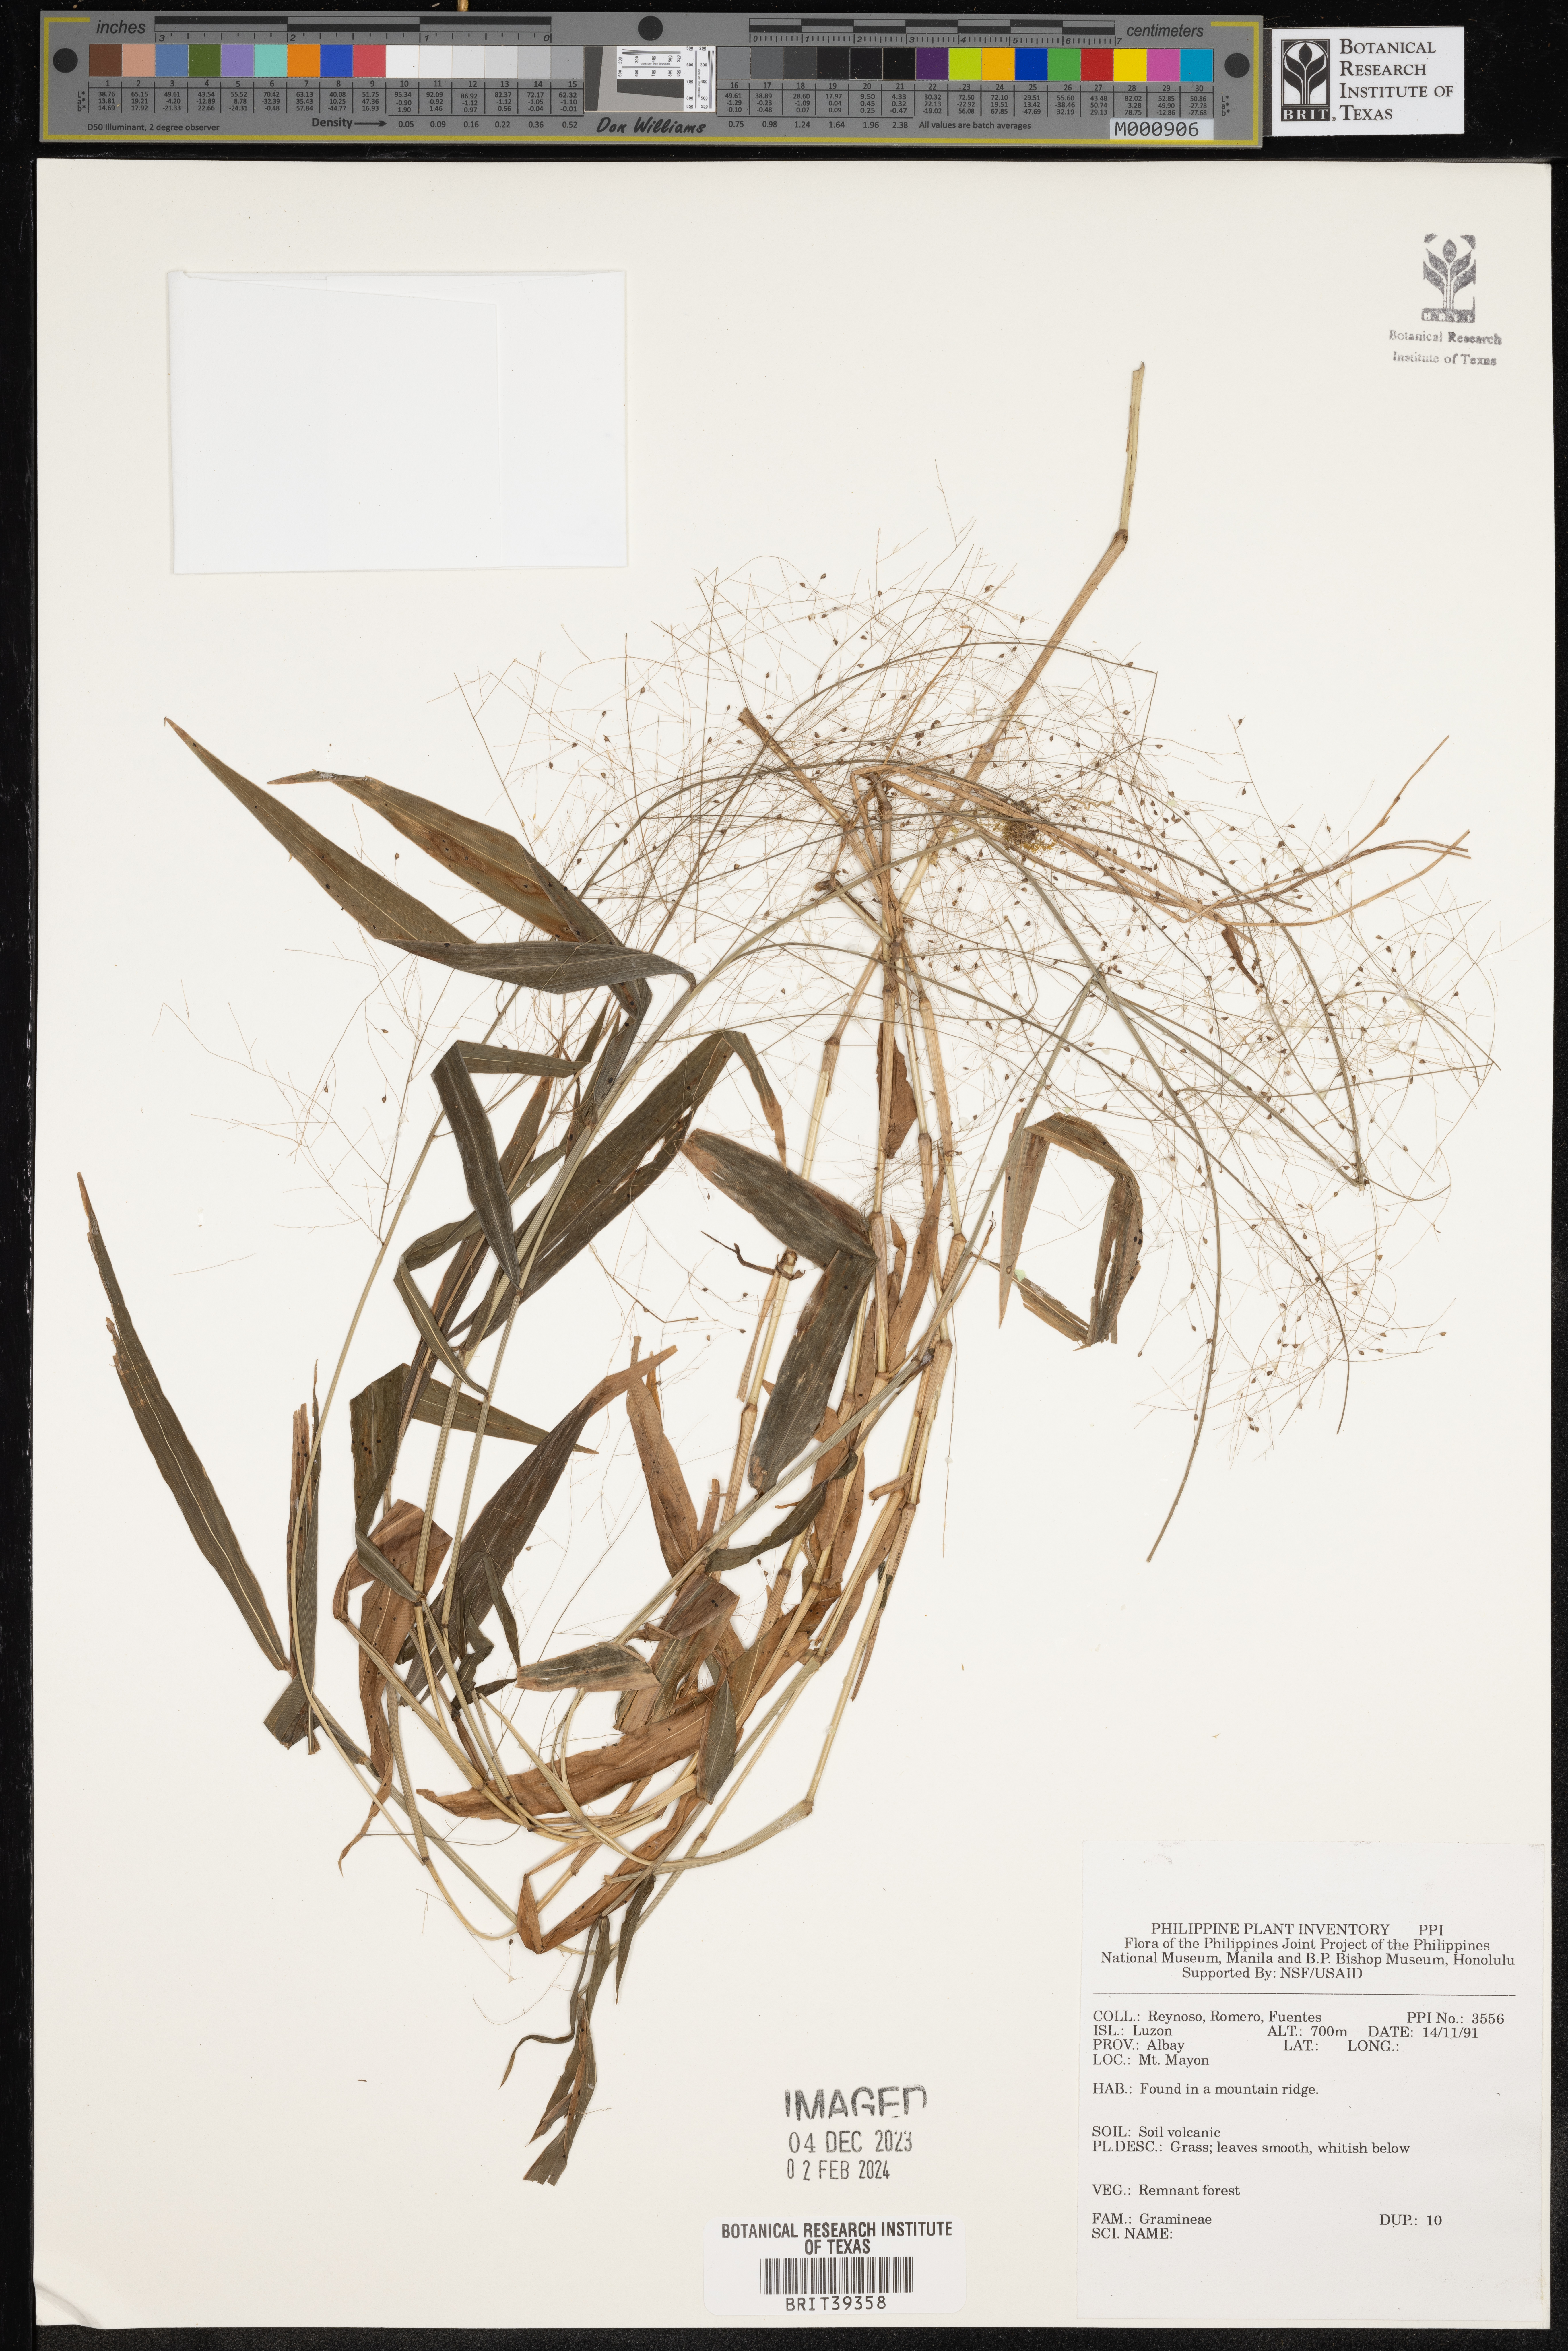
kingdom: Plantae
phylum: Tracheophyta
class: Liliopsida
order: Poales
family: Poaceae
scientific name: Poaceae
